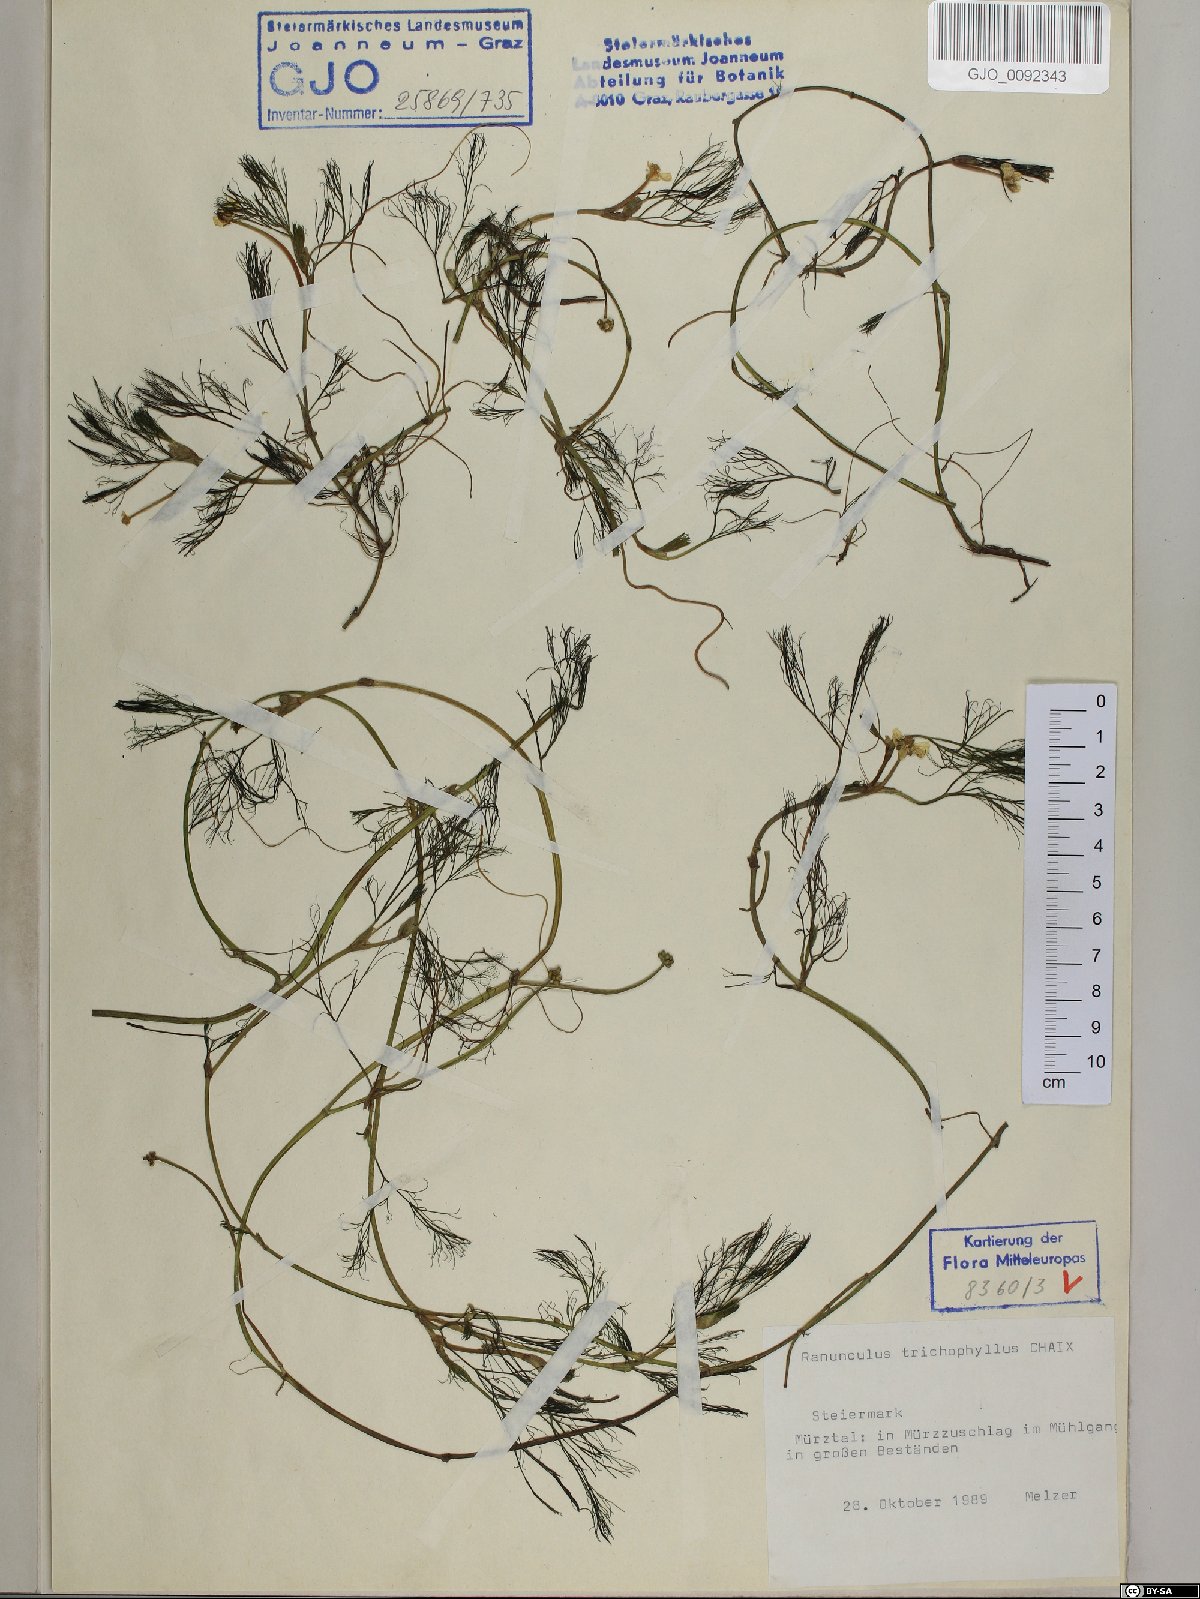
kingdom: Plantae
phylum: Tracheophyta
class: Magnoliopsida
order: Ranunculales
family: Ranunculaceae
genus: Ranunculus
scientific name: Ranunculus trichophyllus
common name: Thread-leaved water-crowfoot
